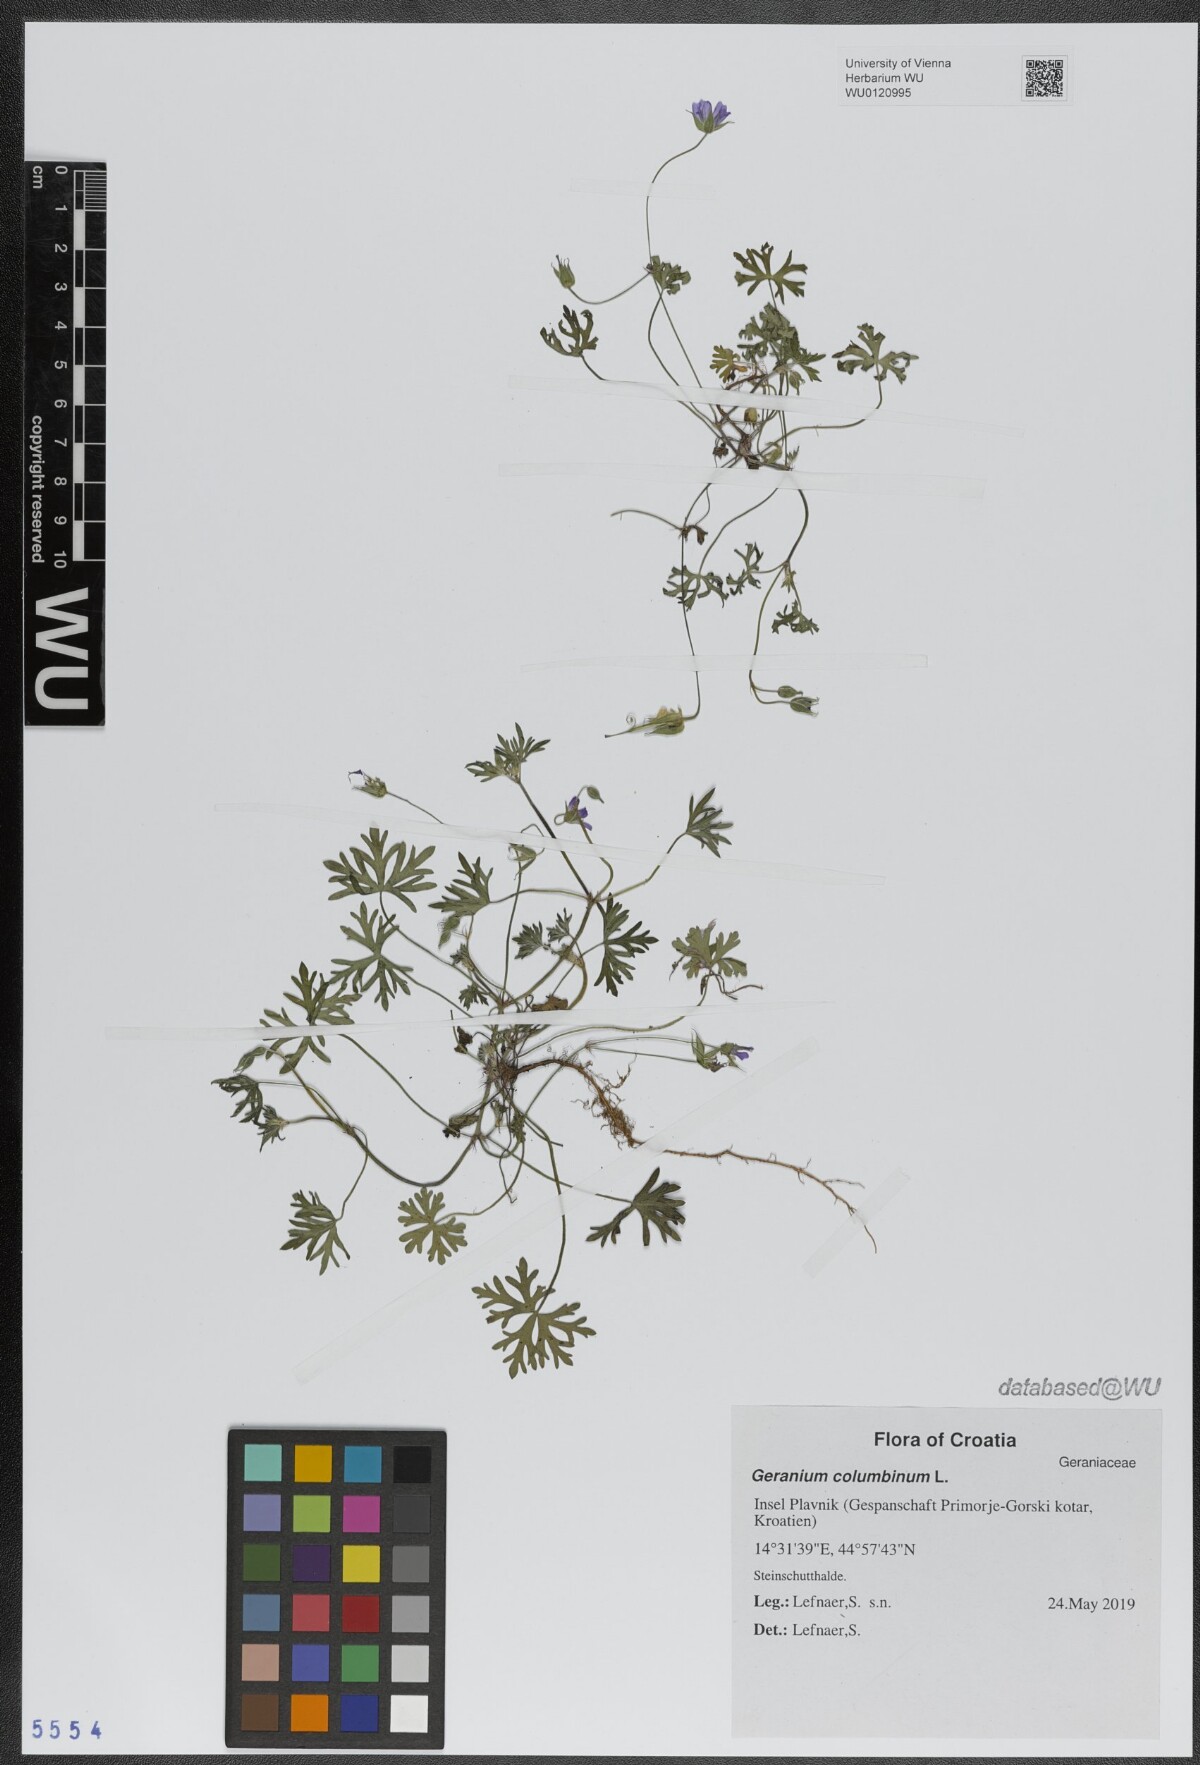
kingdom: Plantae
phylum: Tracheophyta
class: Magnoliopsida
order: Geraniales
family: Geraniaceae
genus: Geranium
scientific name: Geranium columbinum
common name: Long-stalked crane's-bill
